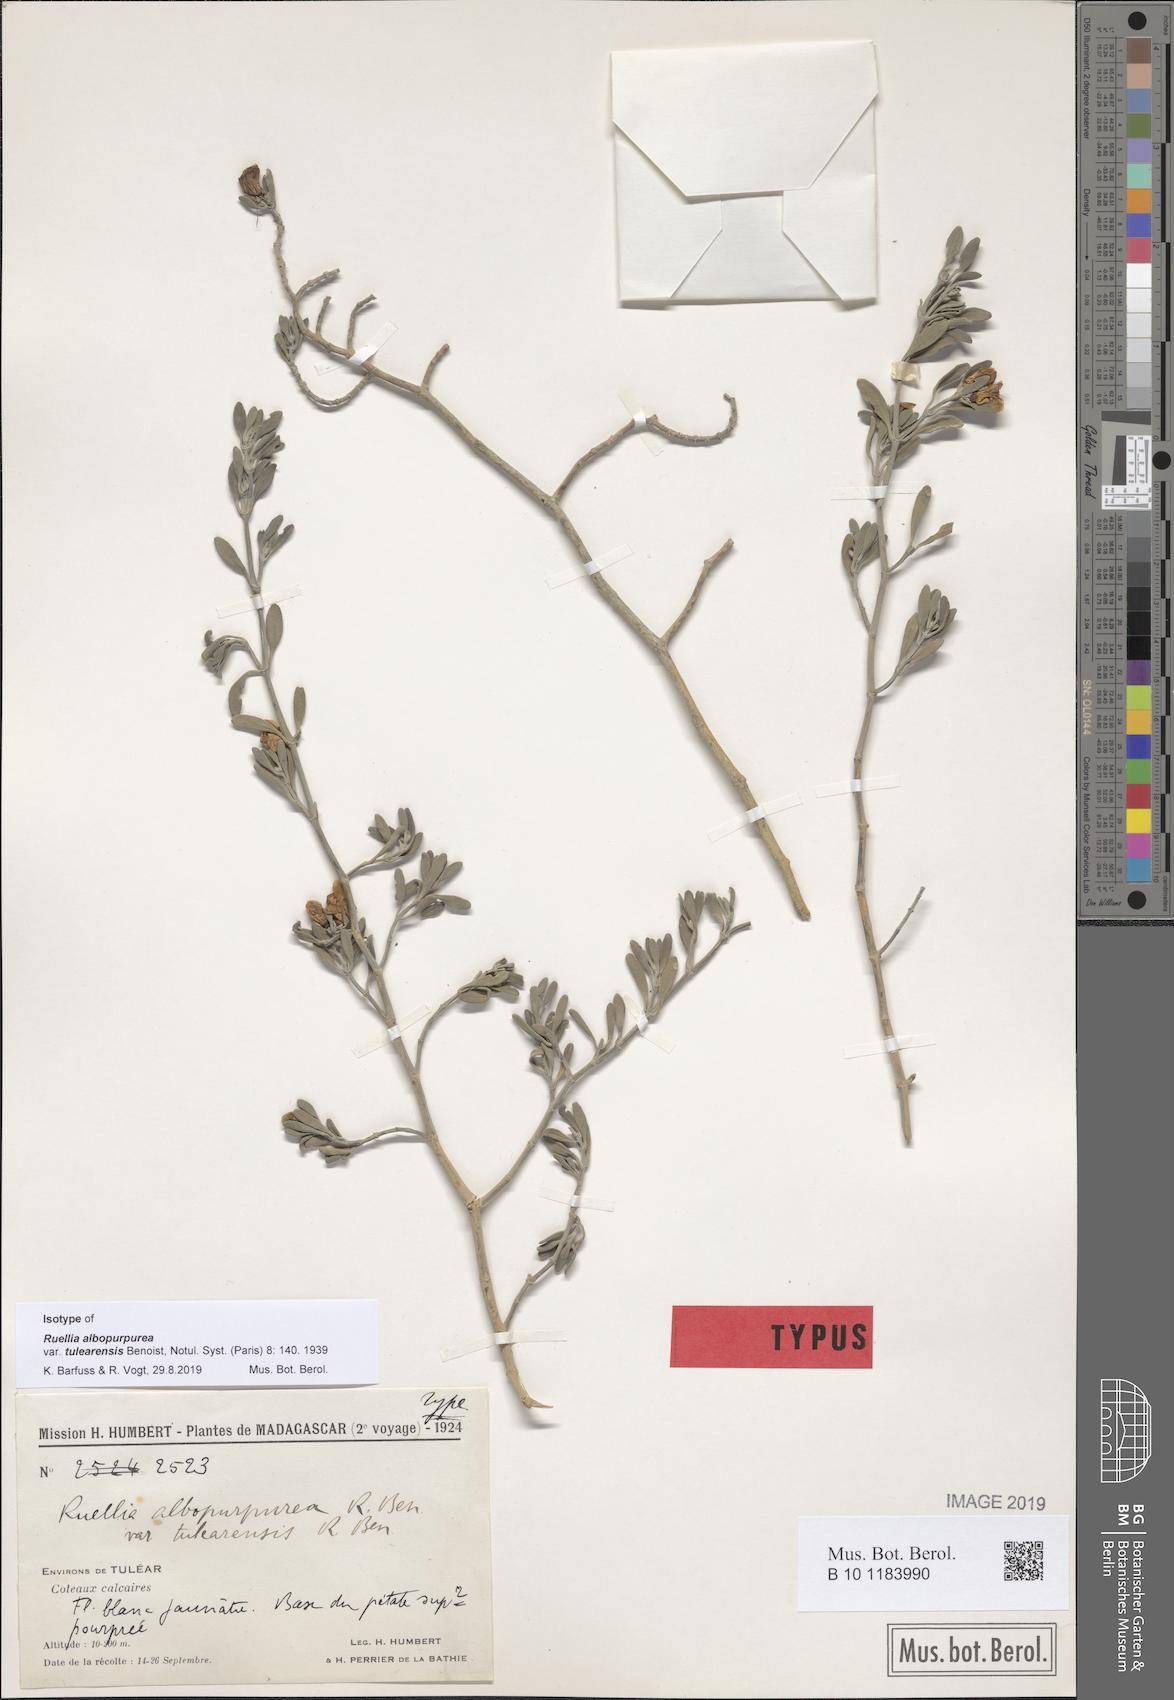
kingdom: Plantae
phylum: Tracheophyta
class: Magnoliopsida
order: Lamiales
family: Acanthaceae
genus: Ruellia
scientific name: Ruellia albopurpurea
